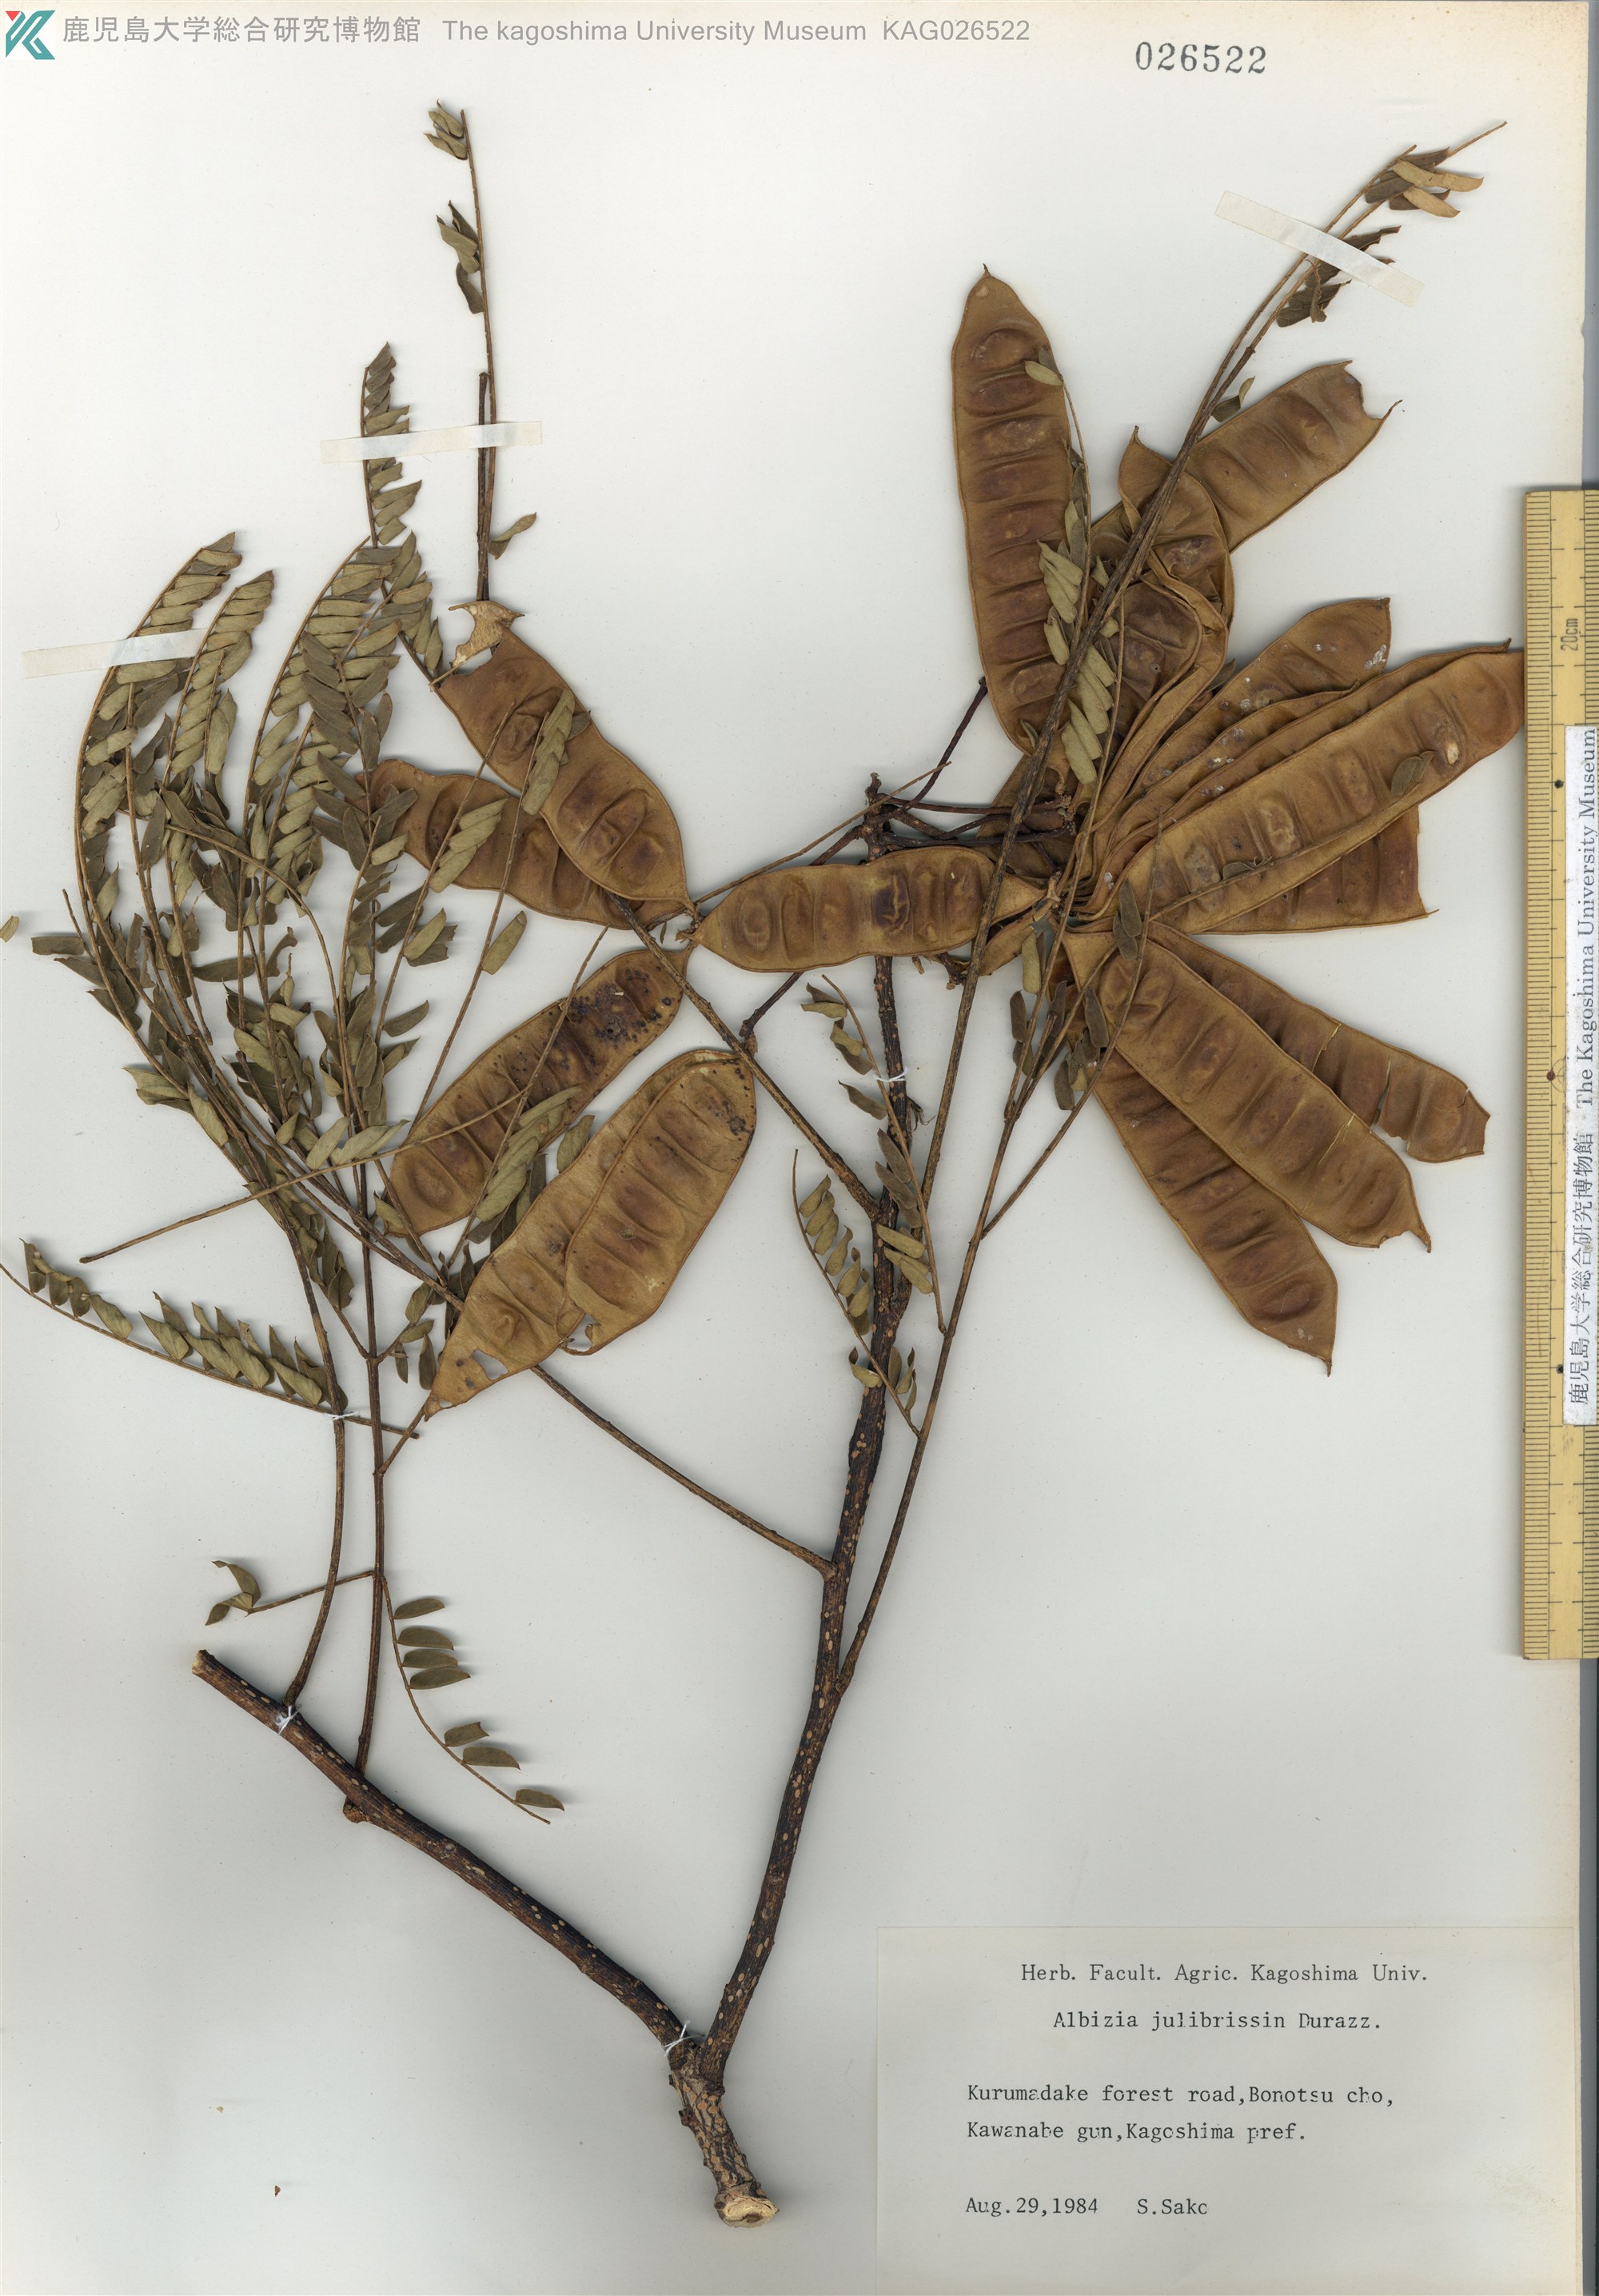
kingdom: Plantae
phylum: Tracheophyta
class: Magnoliopsida
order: Fabales
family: Fabaceae
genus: Albizia
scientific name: Albizia julibrissin
